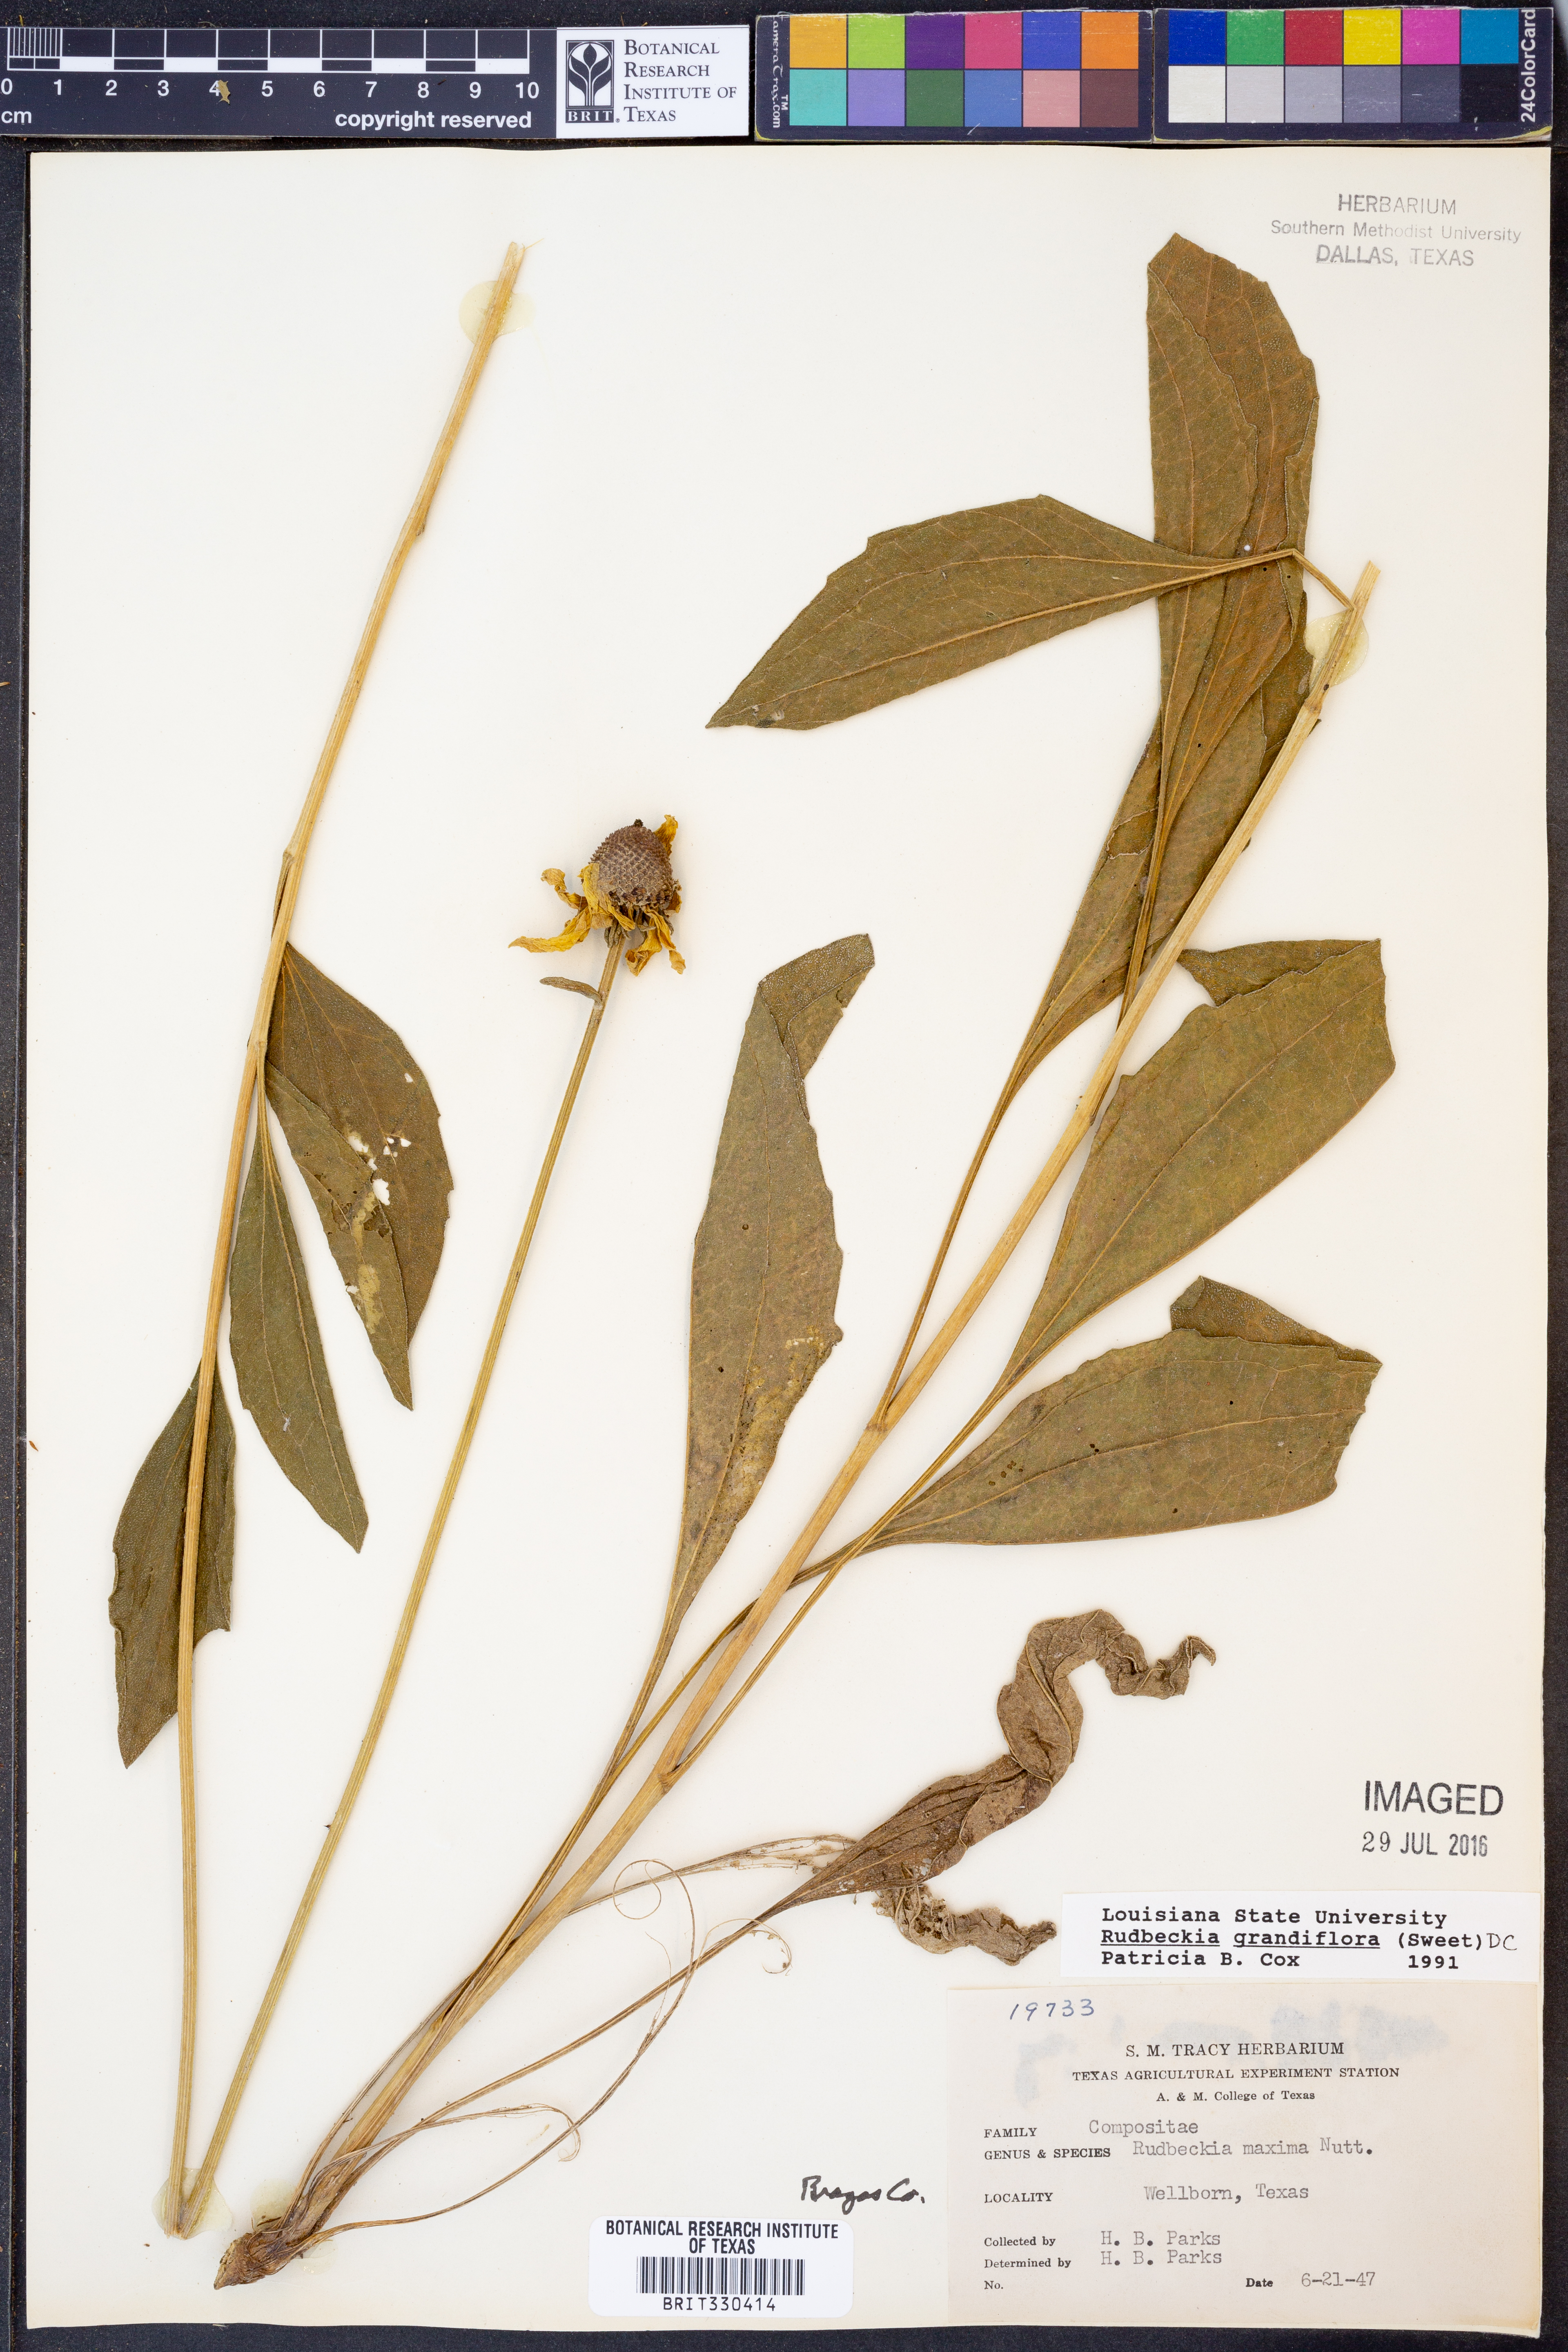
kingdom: Plantae
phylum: Tracheophyta
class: Magnoliopsida
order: Asterales
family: Asteraceae
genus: Rudbeckia
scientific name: Rudbeckia grandiflora
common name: Large-flowered coneflower
